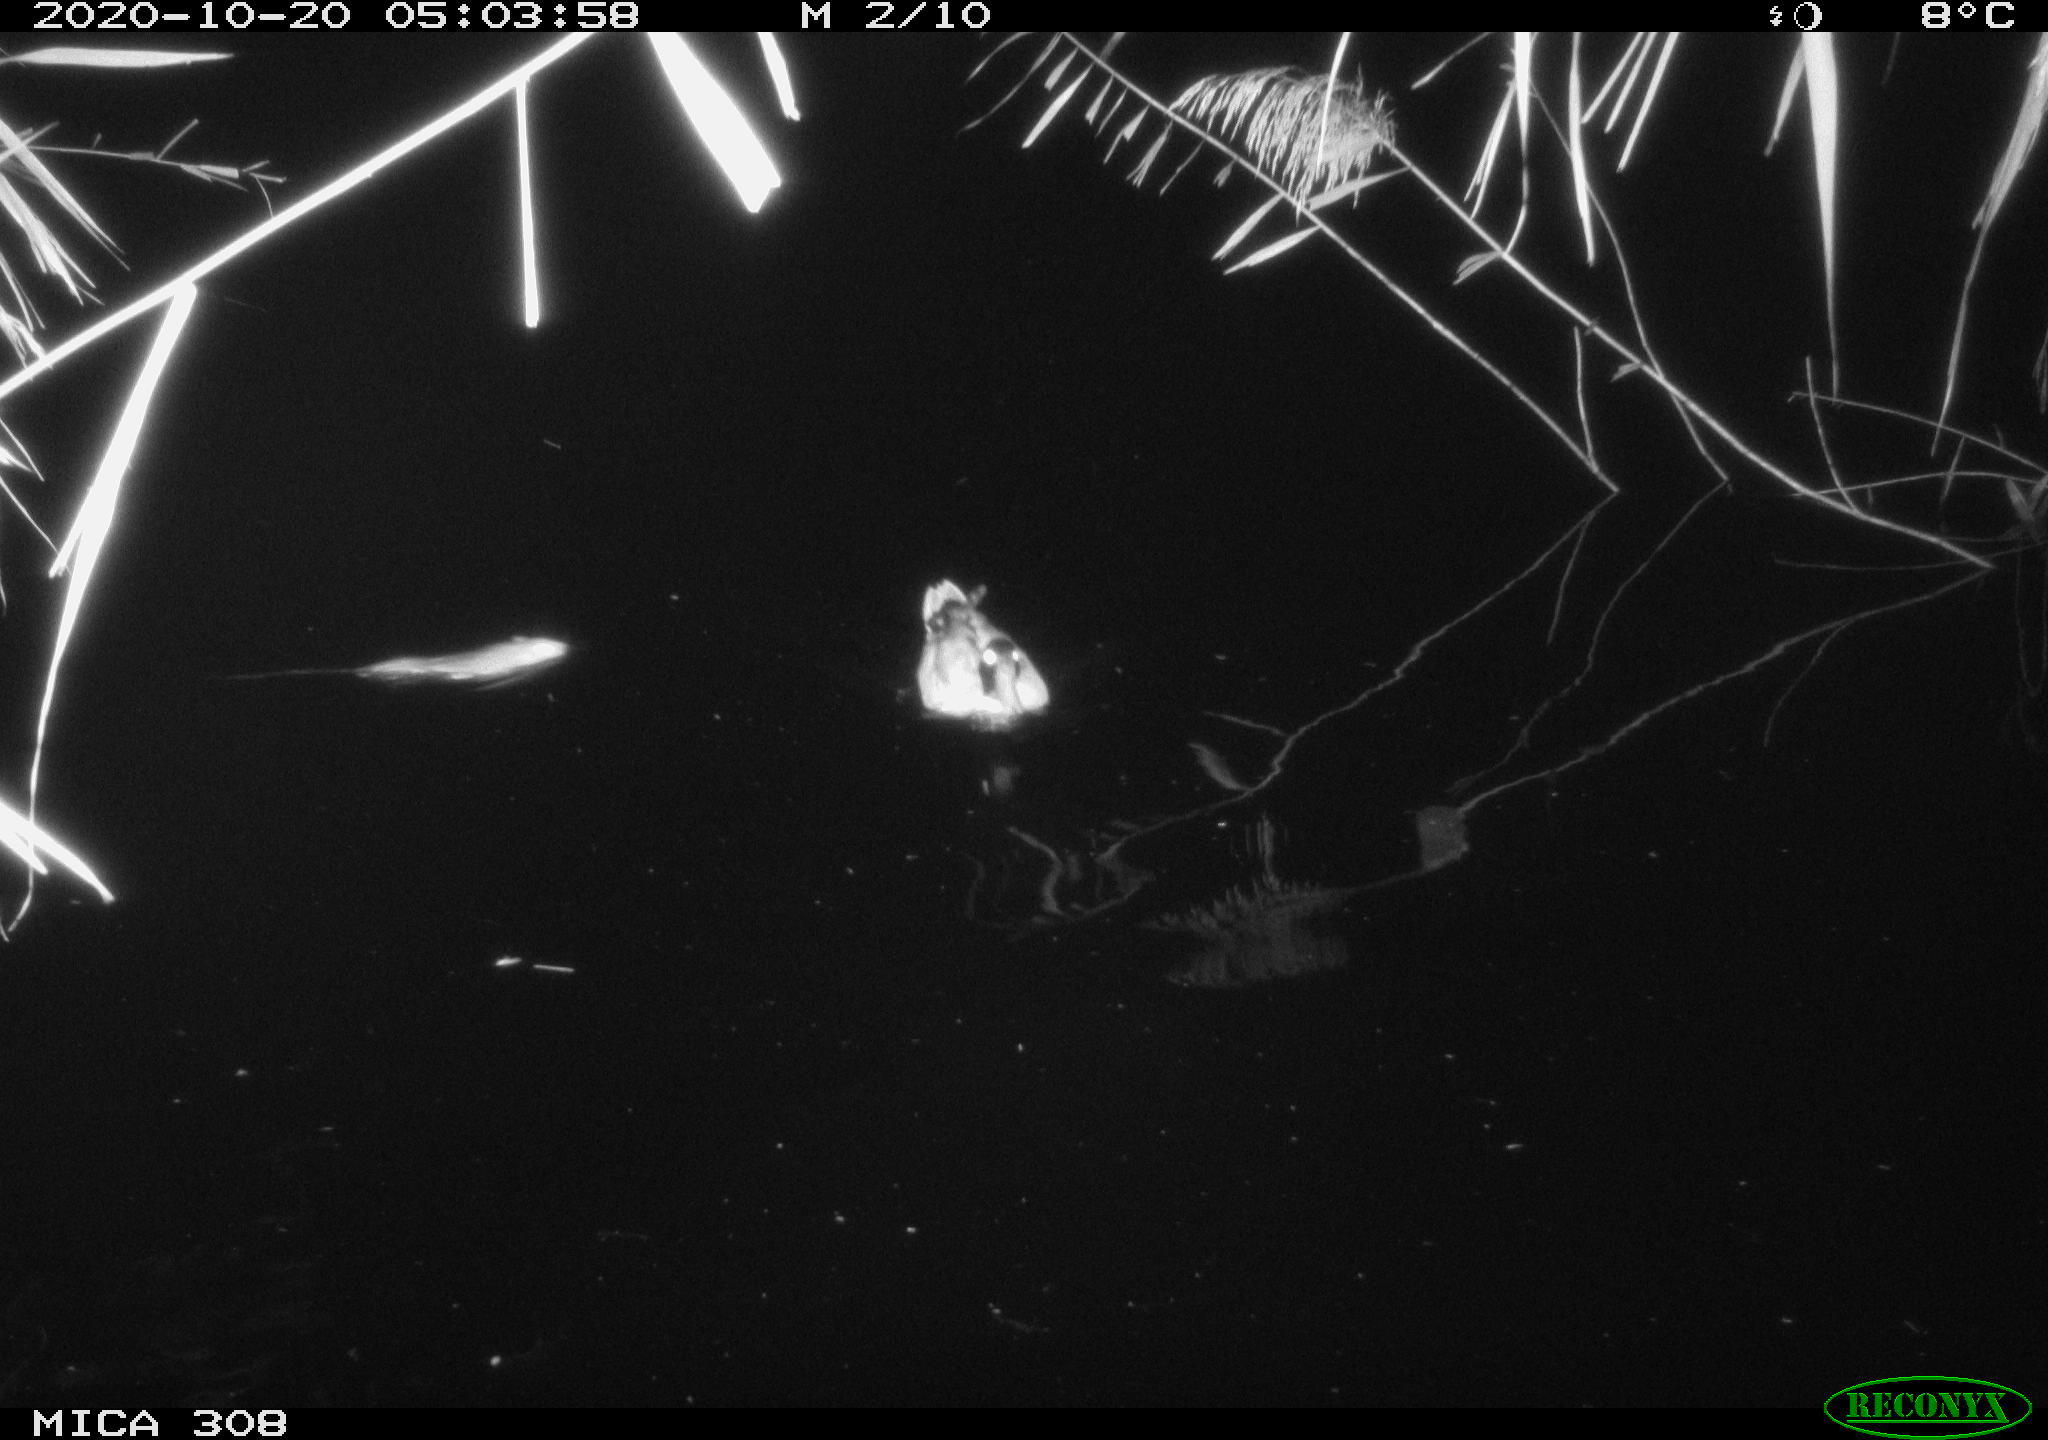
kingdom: Animalia
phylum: Chordata
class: Mammalia
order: Rodentia
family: Muridae
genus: Rattus
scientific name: Rattus norvegicus
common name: Brown rat
